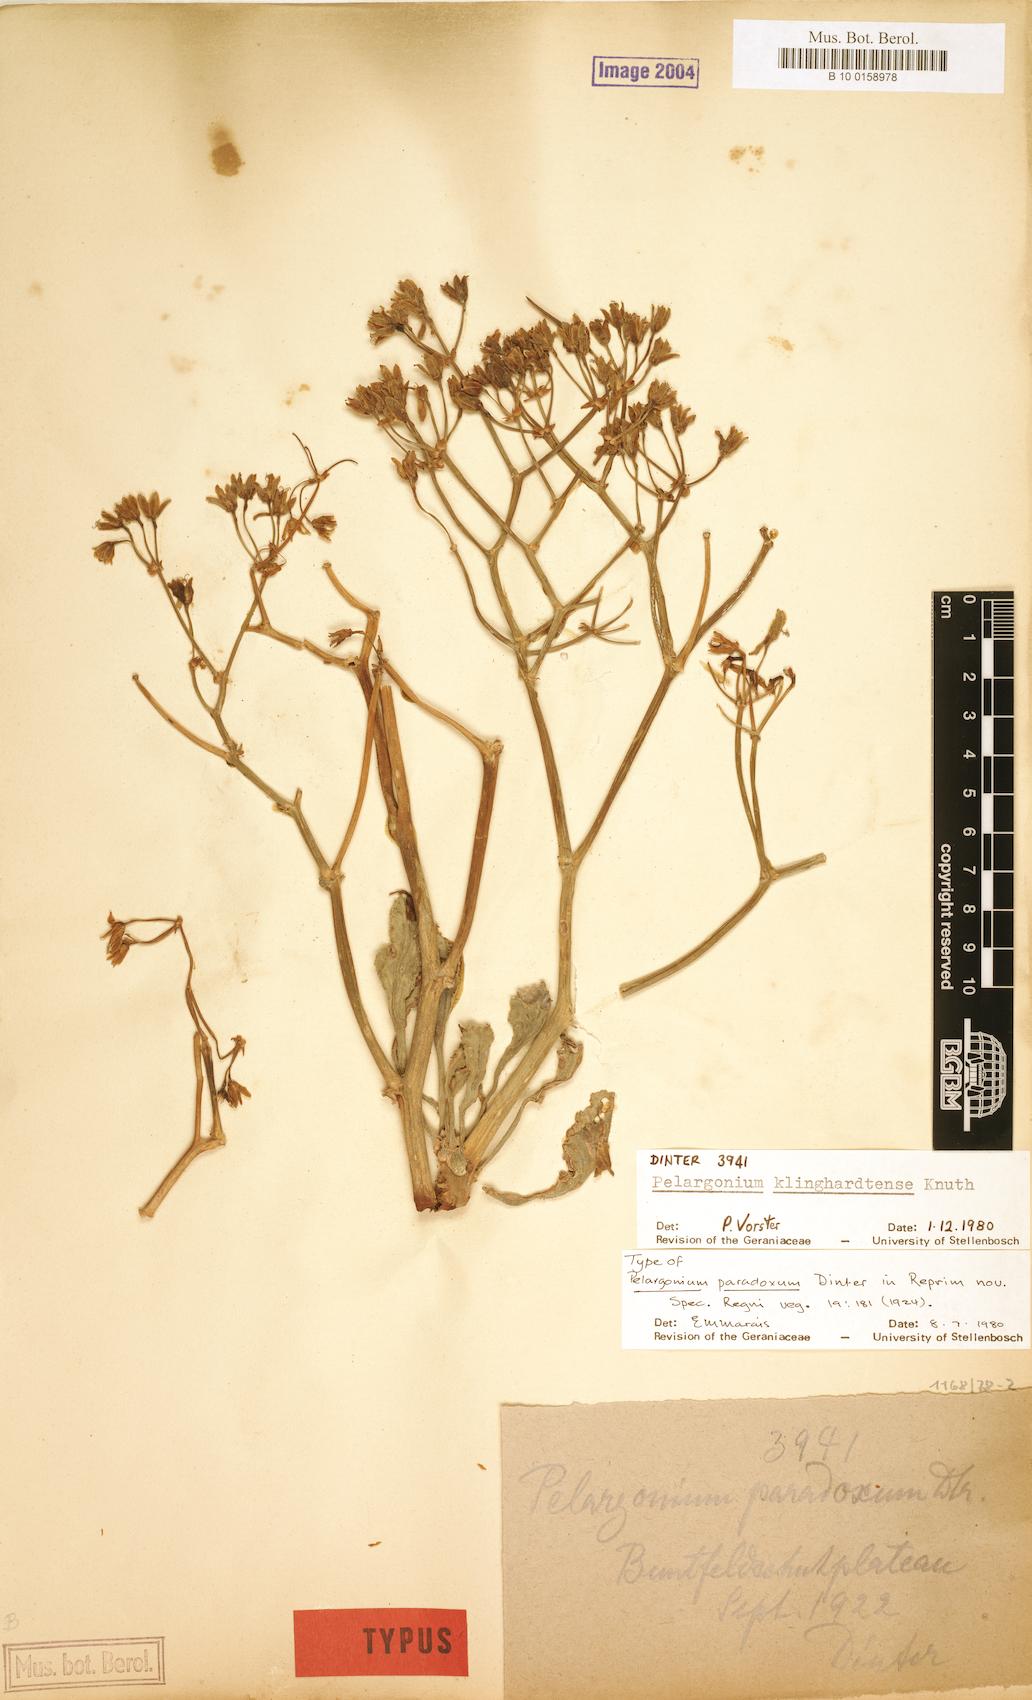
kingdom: Plantae
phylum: Tracheophyta
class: Magnoliopsida
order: Geraniales
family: Geraniaceae
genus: Pelargonium
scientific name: Pelargonium klinghardtense
